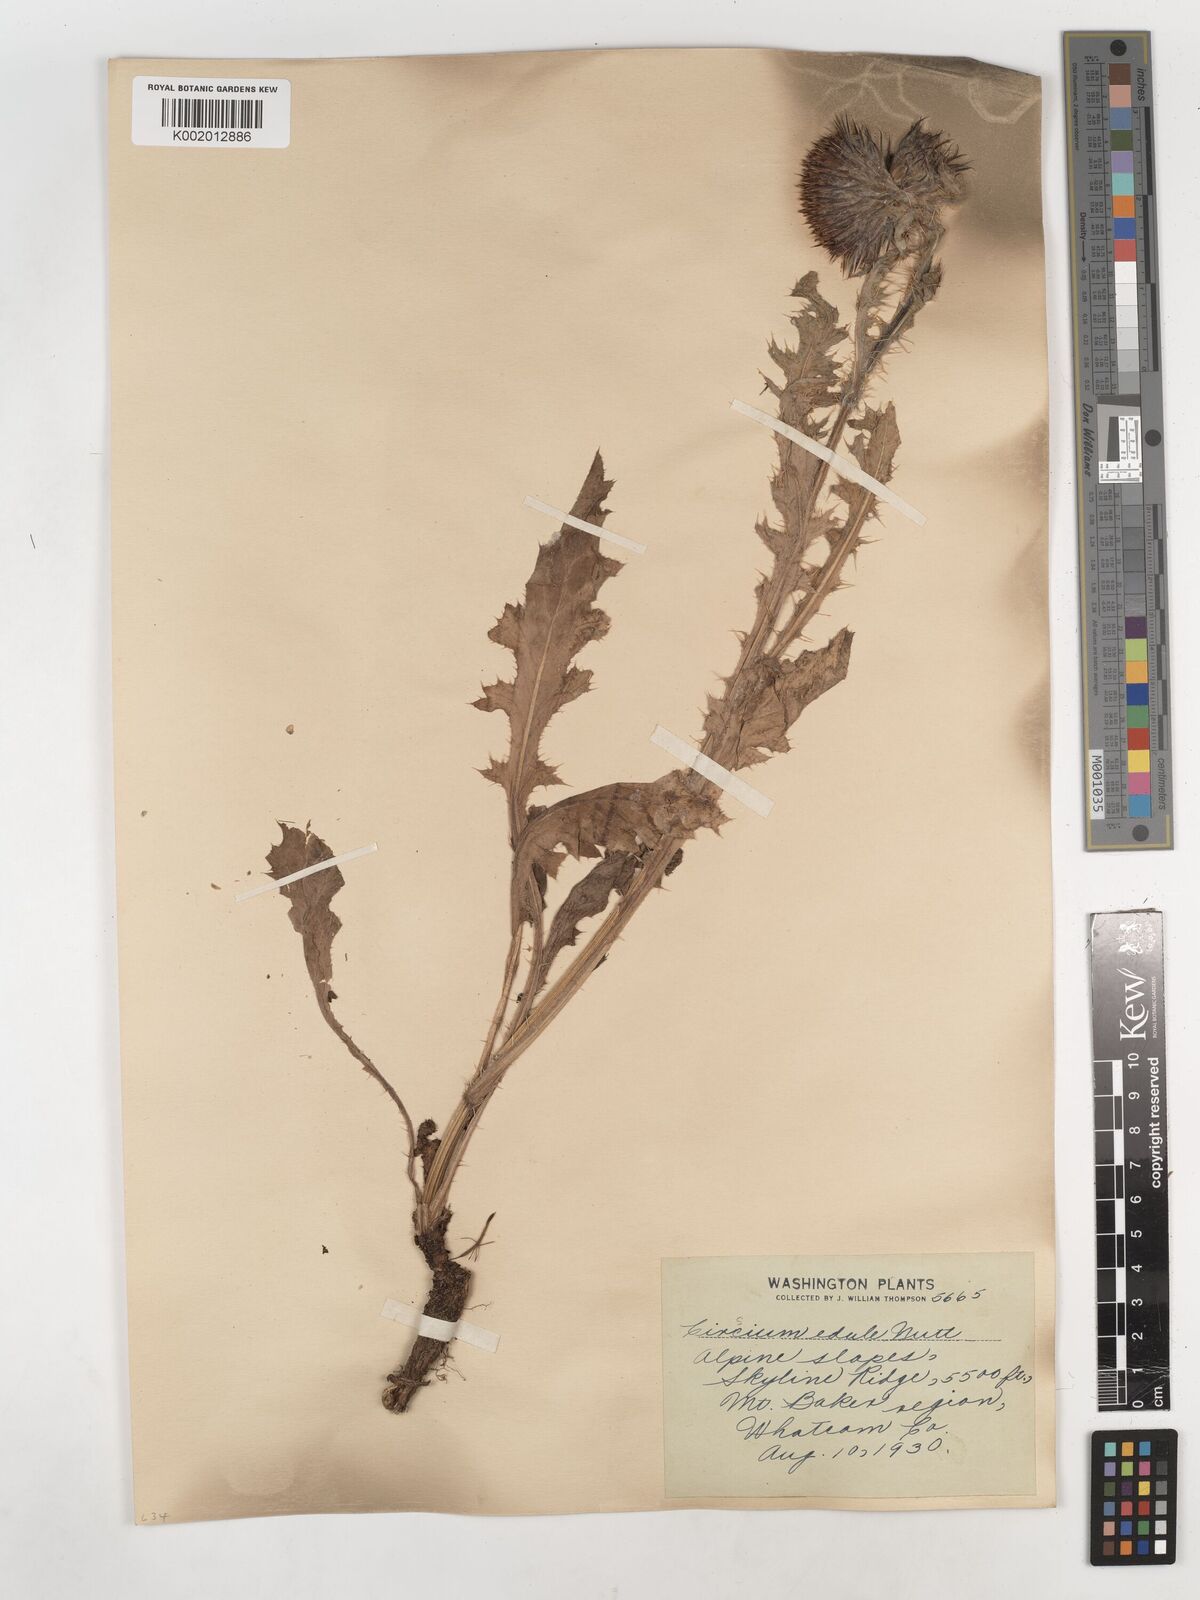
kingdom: Plantae
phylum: Tracheophyta
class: Magnoliopsida
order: Asterales
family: Asteraceae
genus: Cirsium
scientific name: Cirsium edule
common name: Indian thistle
